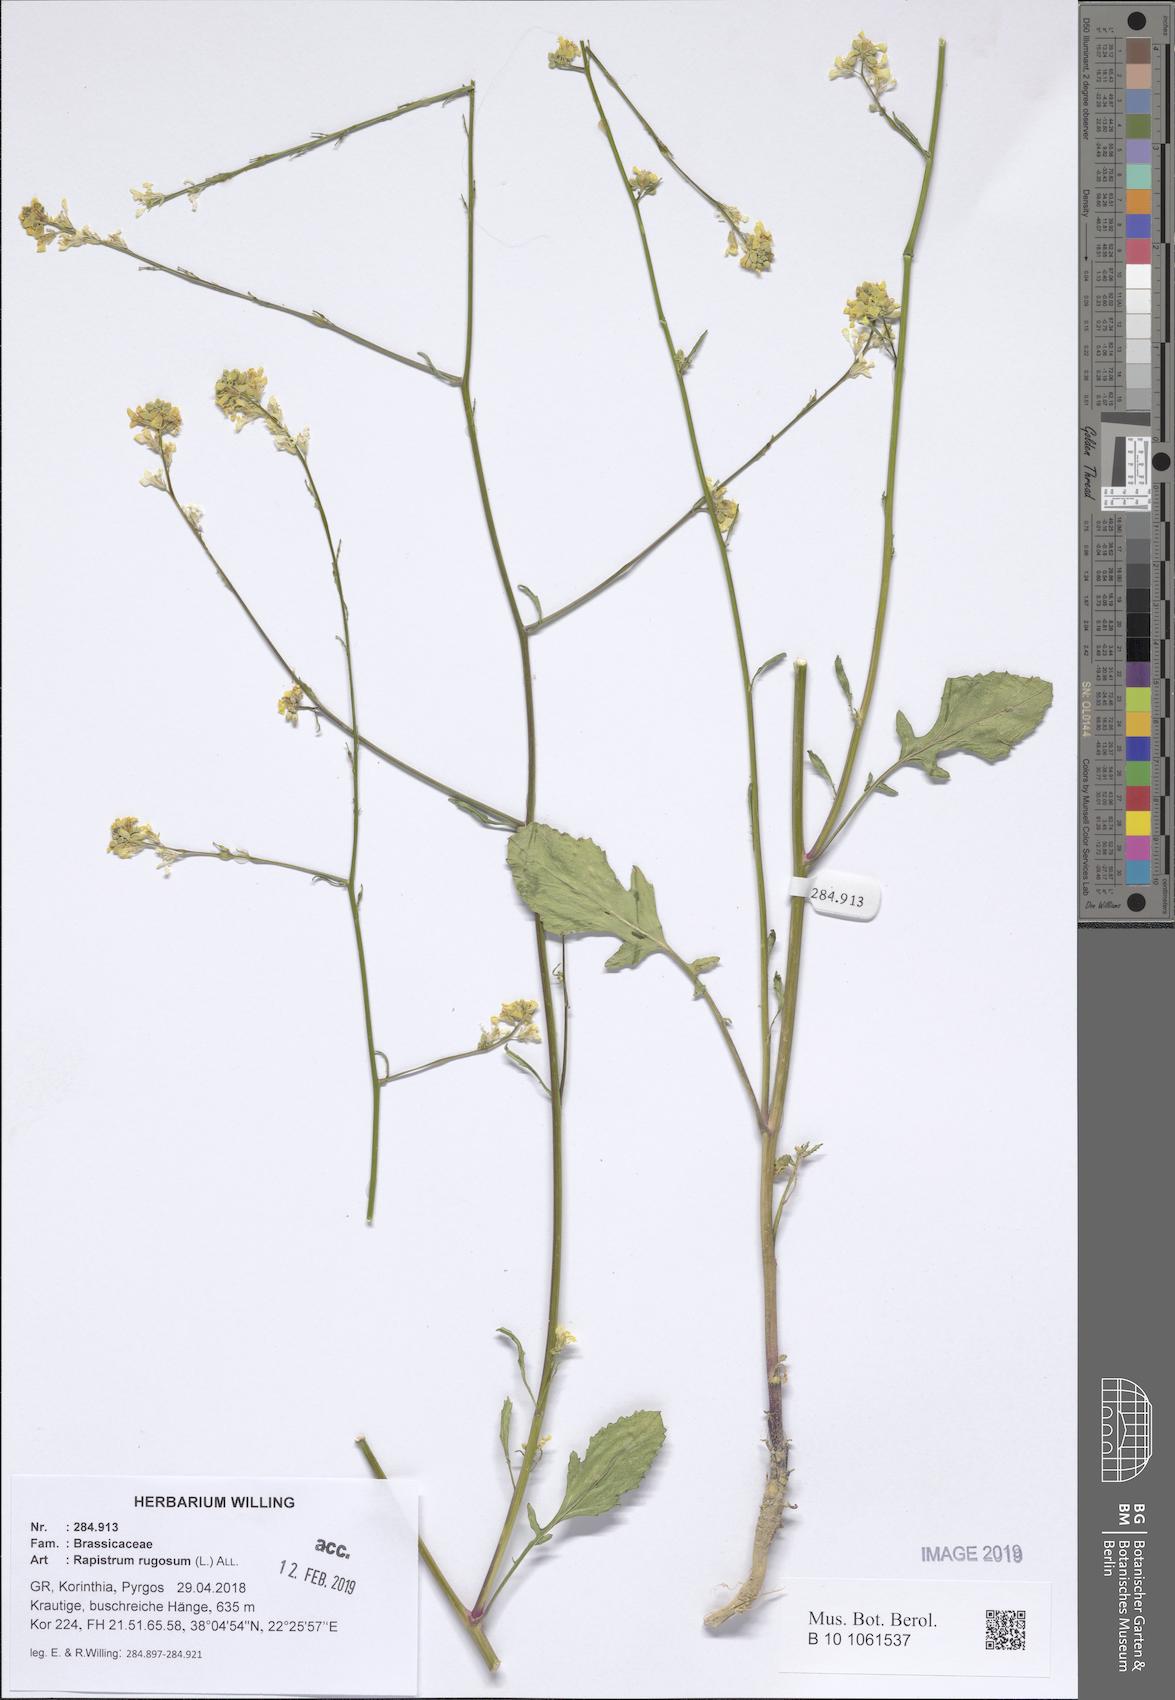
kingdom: Plantae
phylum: Tracheophyta
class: Magnoliopsida
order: Brassicales
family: Brassicaceae
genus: Rapistrum
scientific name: Rapistrum rugosum
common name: Annual bastardcabbage
